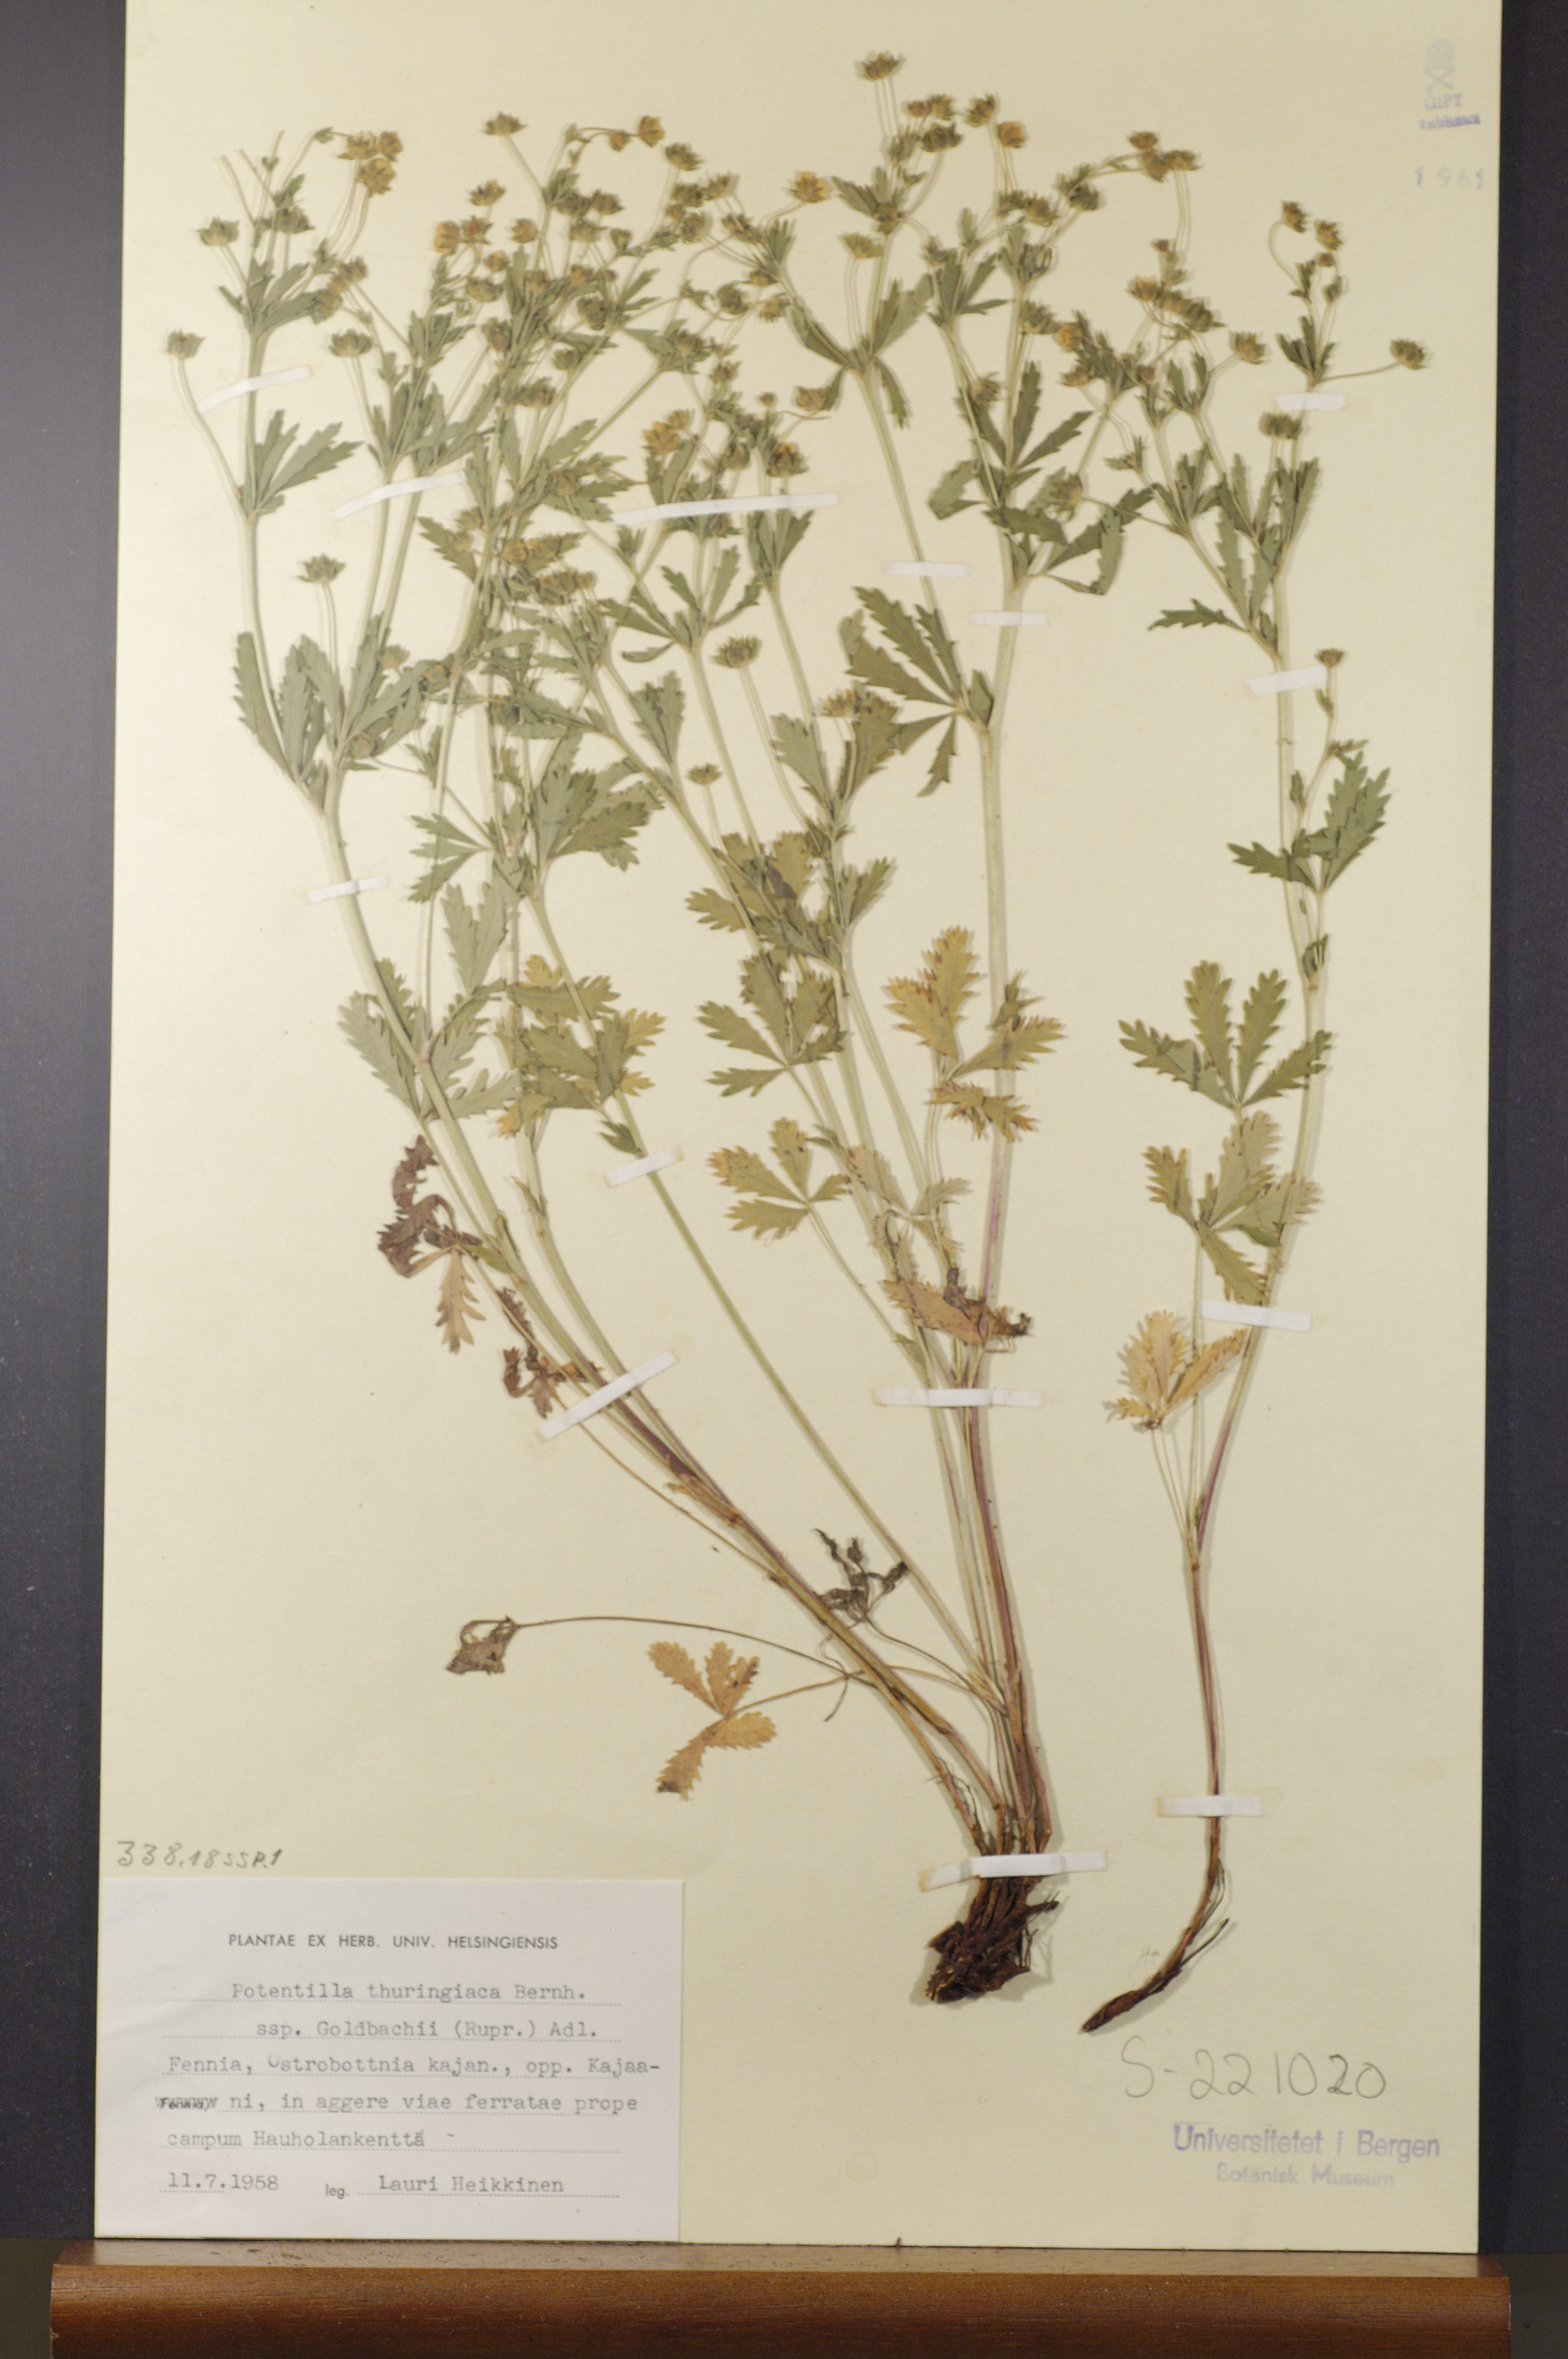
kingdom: Plantae
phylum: Tracheophyta
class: Magnoliopsida
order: Rosales
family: Rosaceae
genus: Potentilla
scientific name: Potentilla thuringiaca
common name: European cinquefoil
